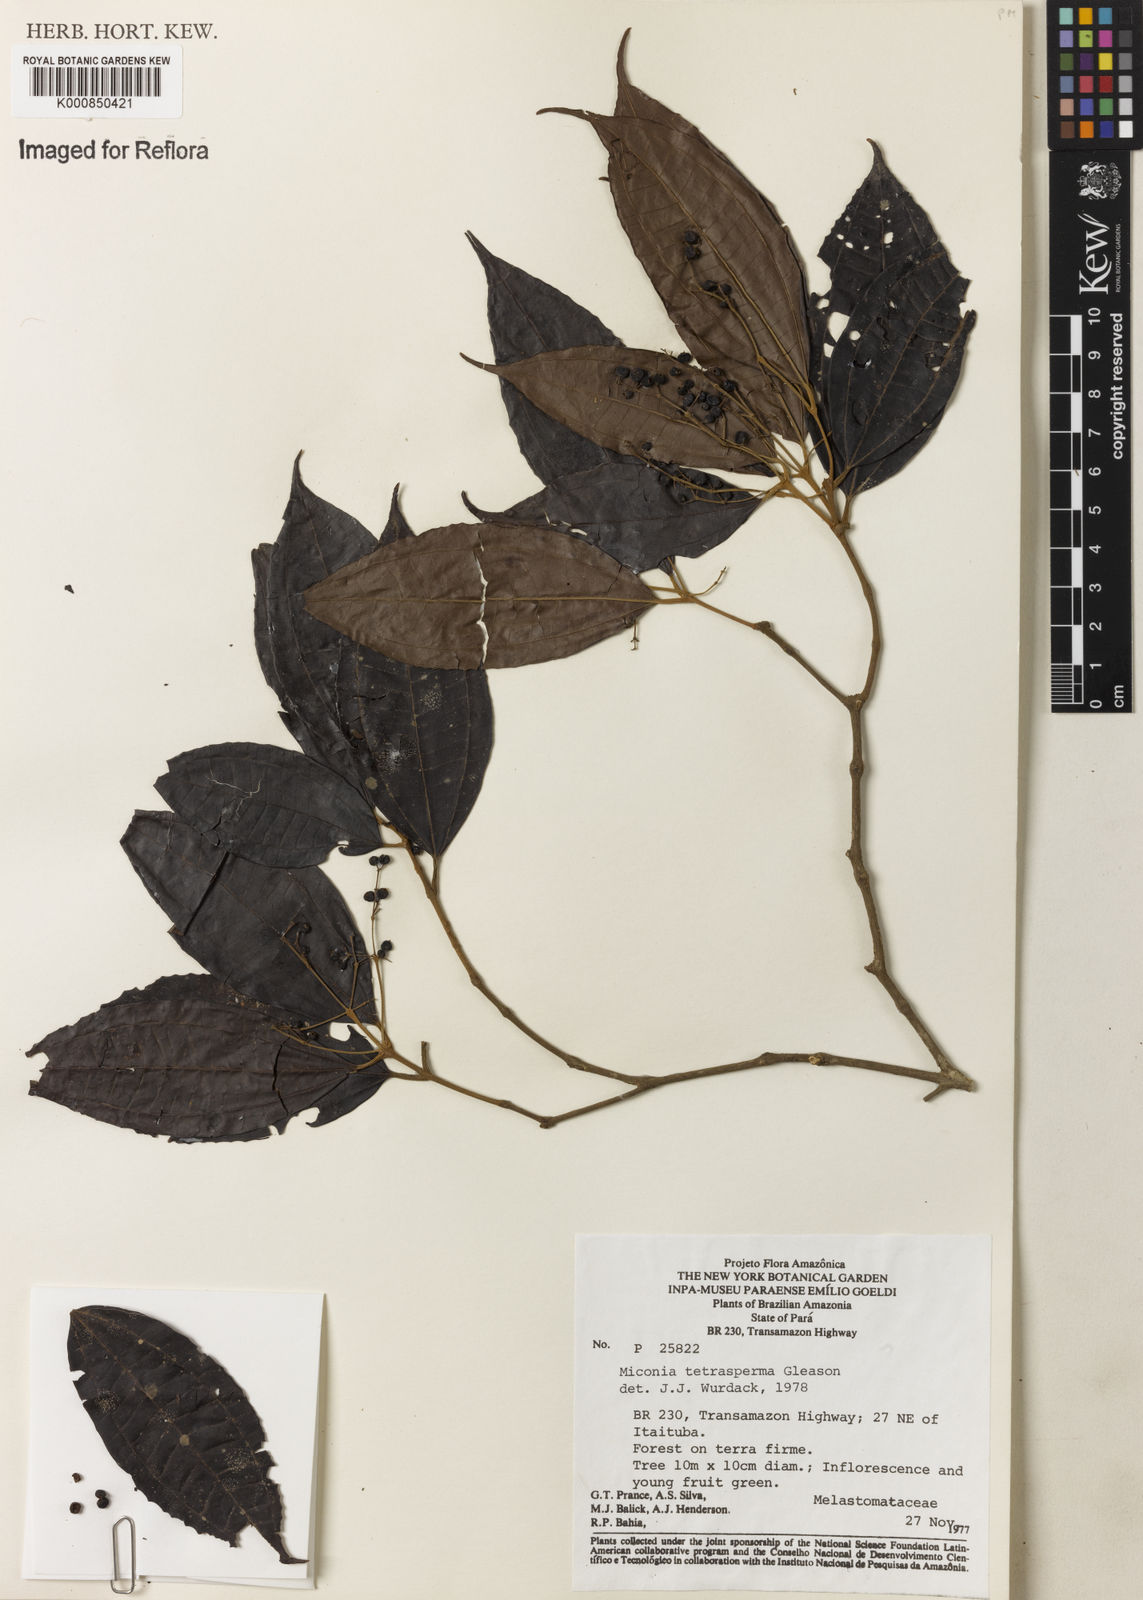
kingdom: Plantae
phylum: Tracheophyta
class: Magnoliopsida
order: Myrtales
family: Melastomataceae
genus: Miconia
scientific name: Miconia tetrasperma
